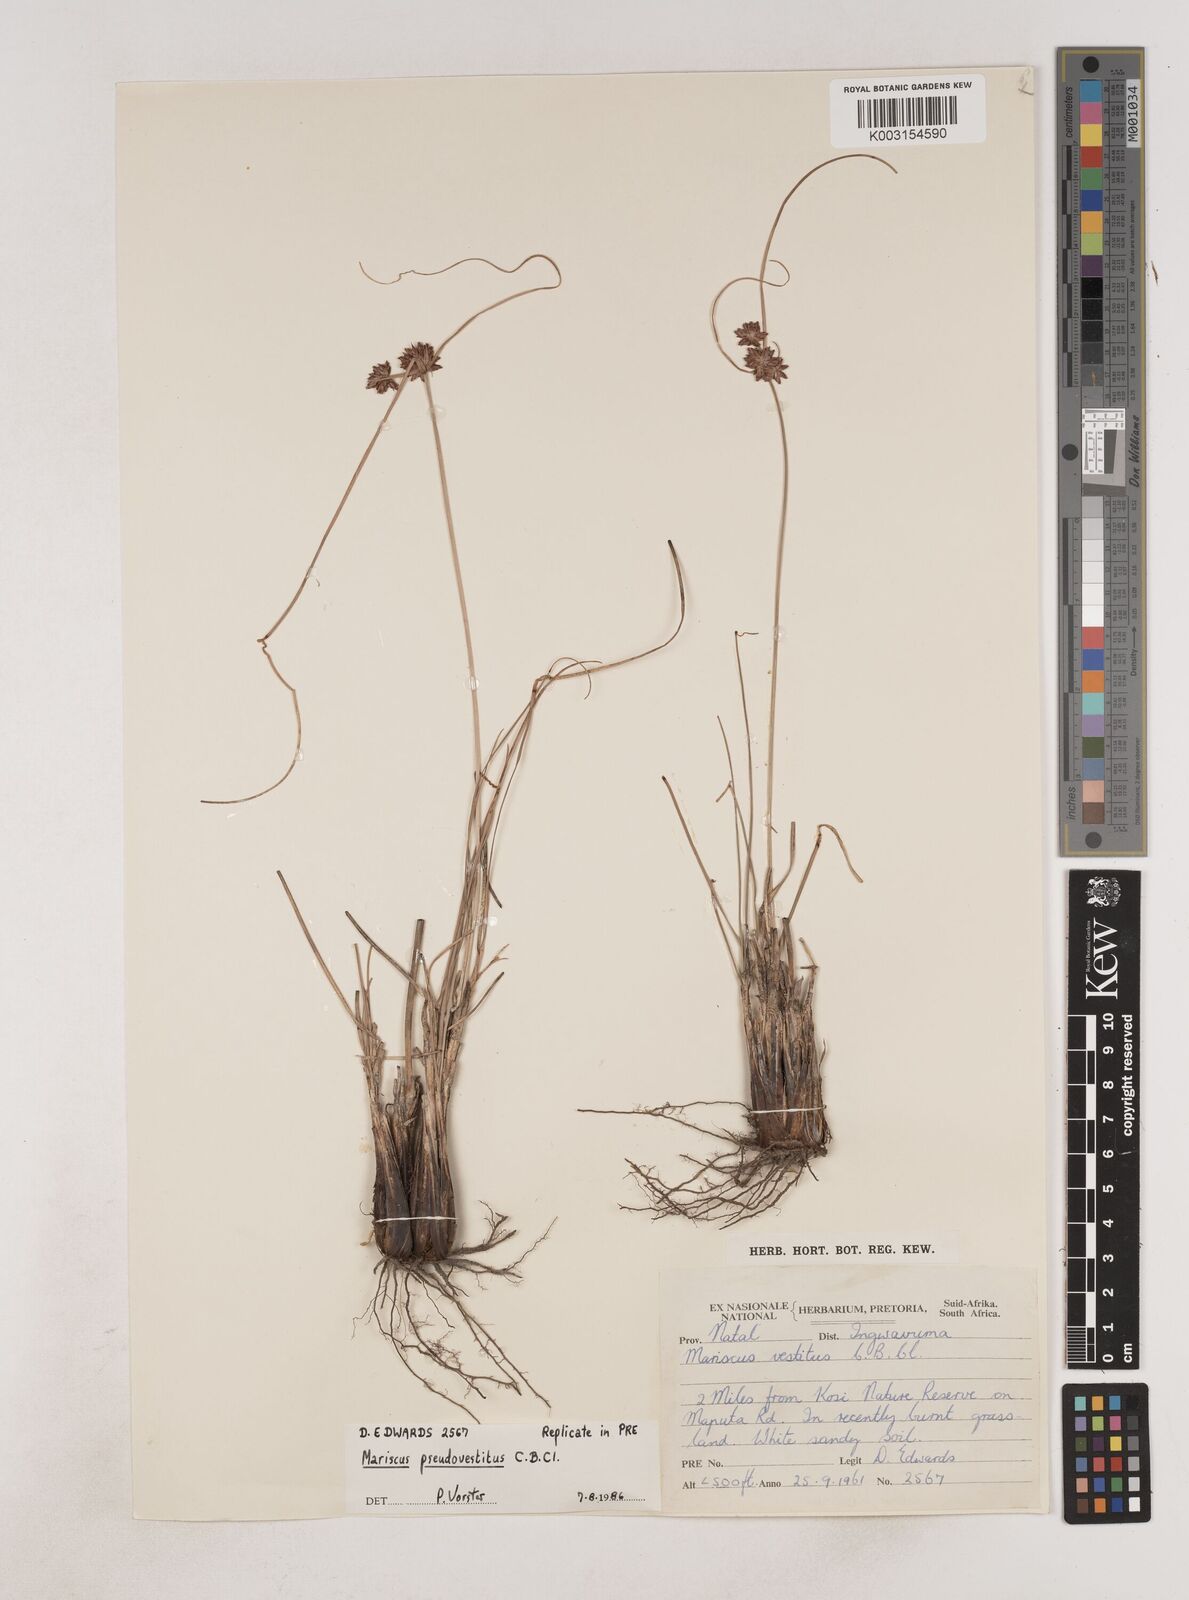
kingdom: Plantae
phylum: Tracheophyta
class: Liliopsida
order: Poales
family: Cyperaceae
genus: Cyperus
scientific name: Cyperus pseudovestitus
